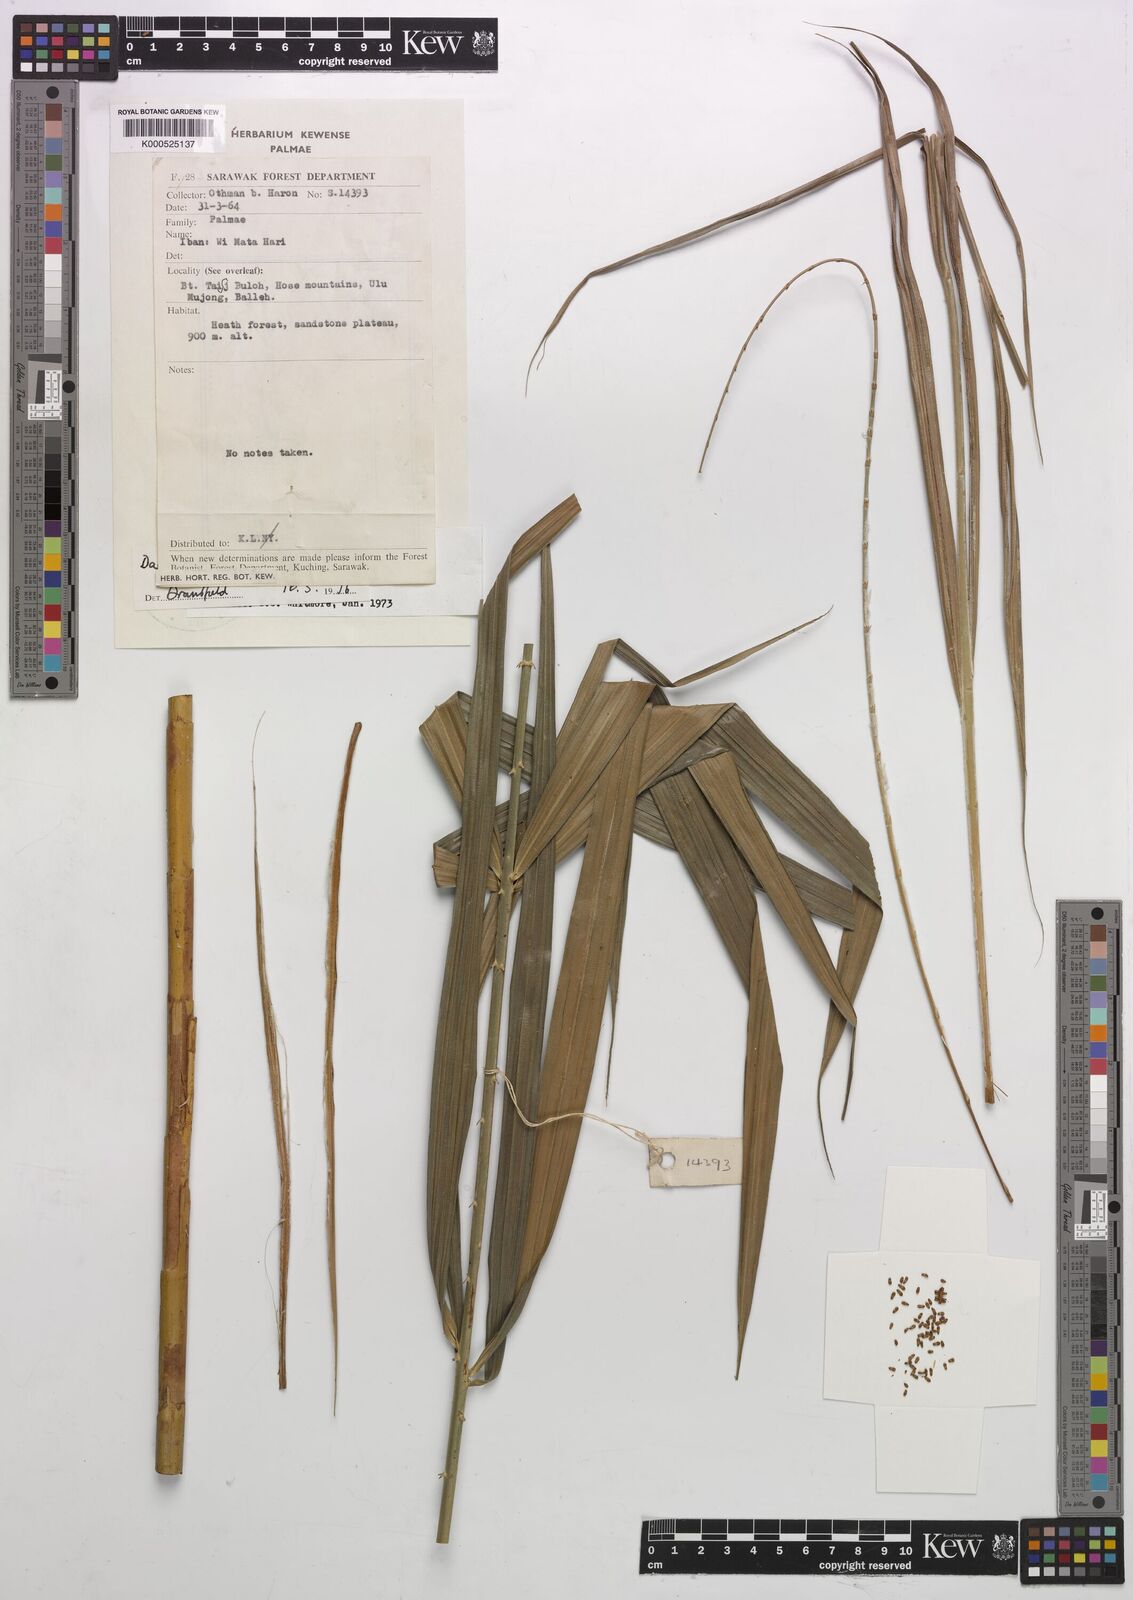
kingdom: Plantae
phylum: Tracheophyta
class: Liliopsida
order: Arecales
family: Arecaceae
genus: Calamus
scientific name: Calamus geniculatus
